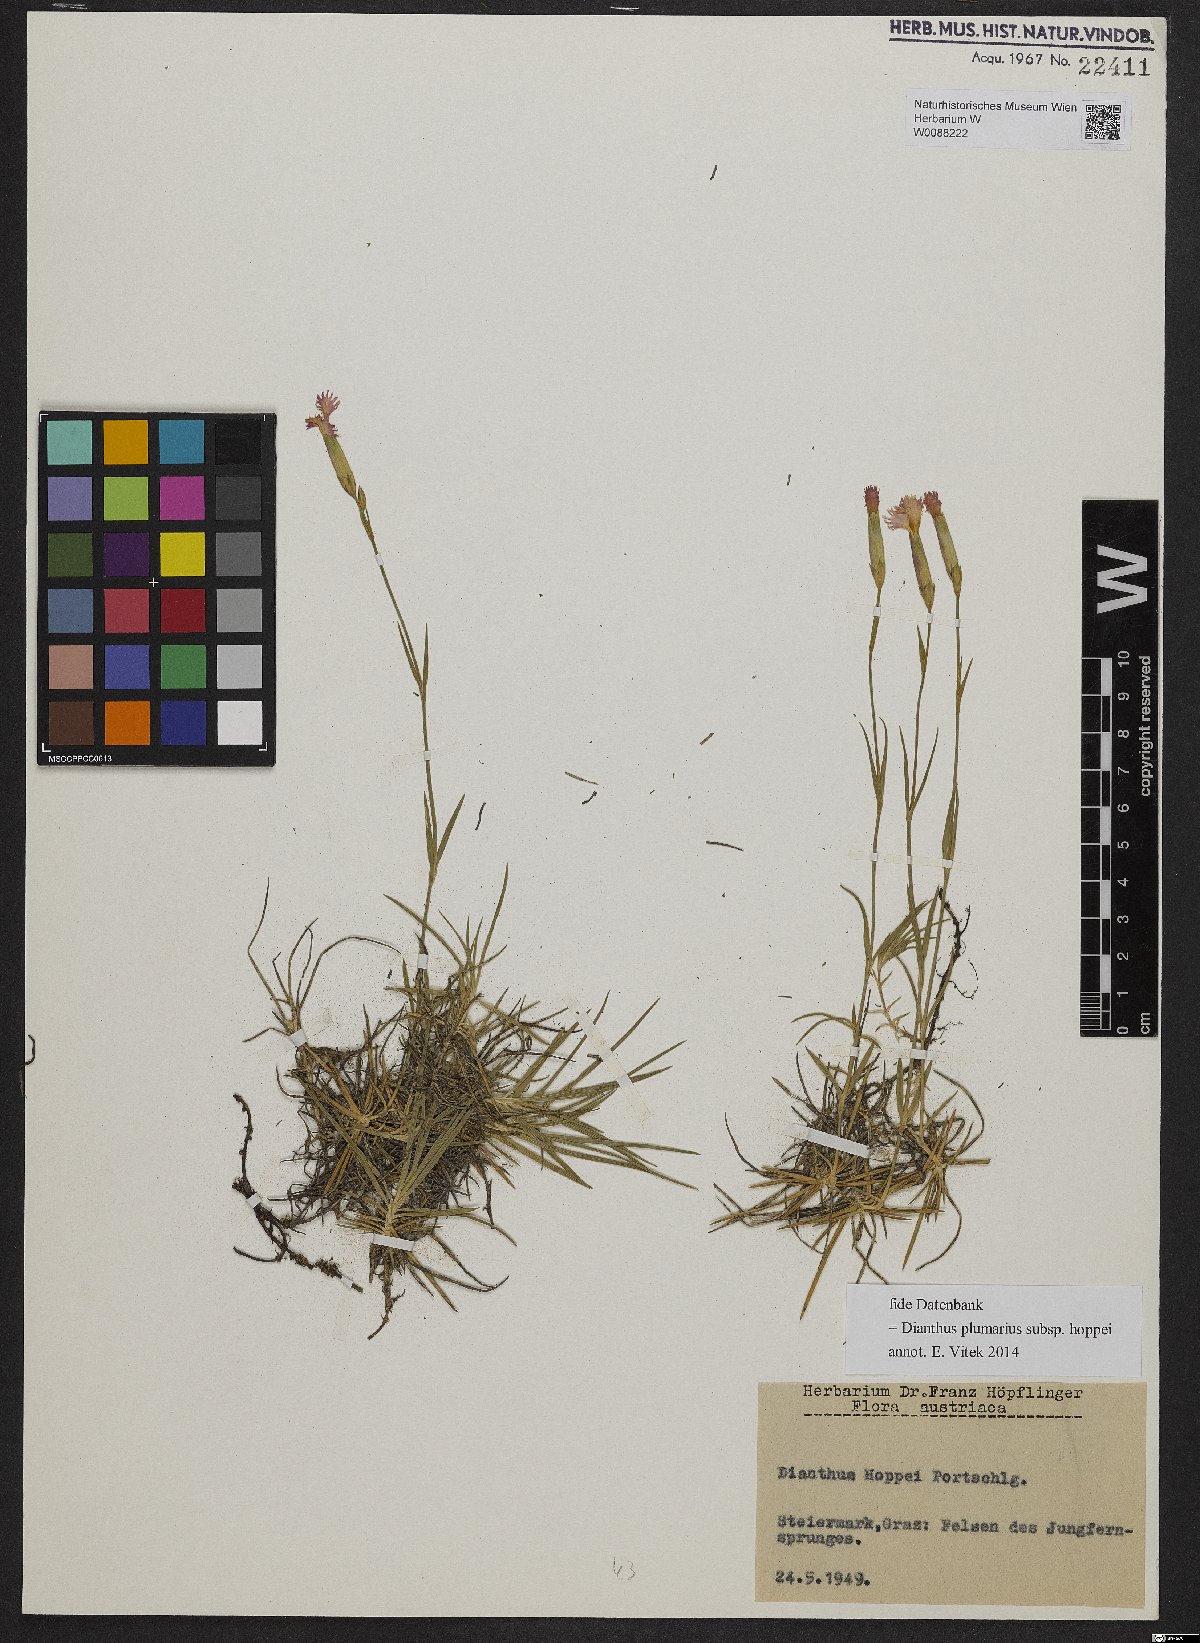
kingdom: Plantae
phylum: Tracheophyta
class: Magnoliopsida
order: Caryophyllales
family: Caryophyllaceae
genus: Dianthus
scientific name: Dianthus plumarius
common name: Pink
